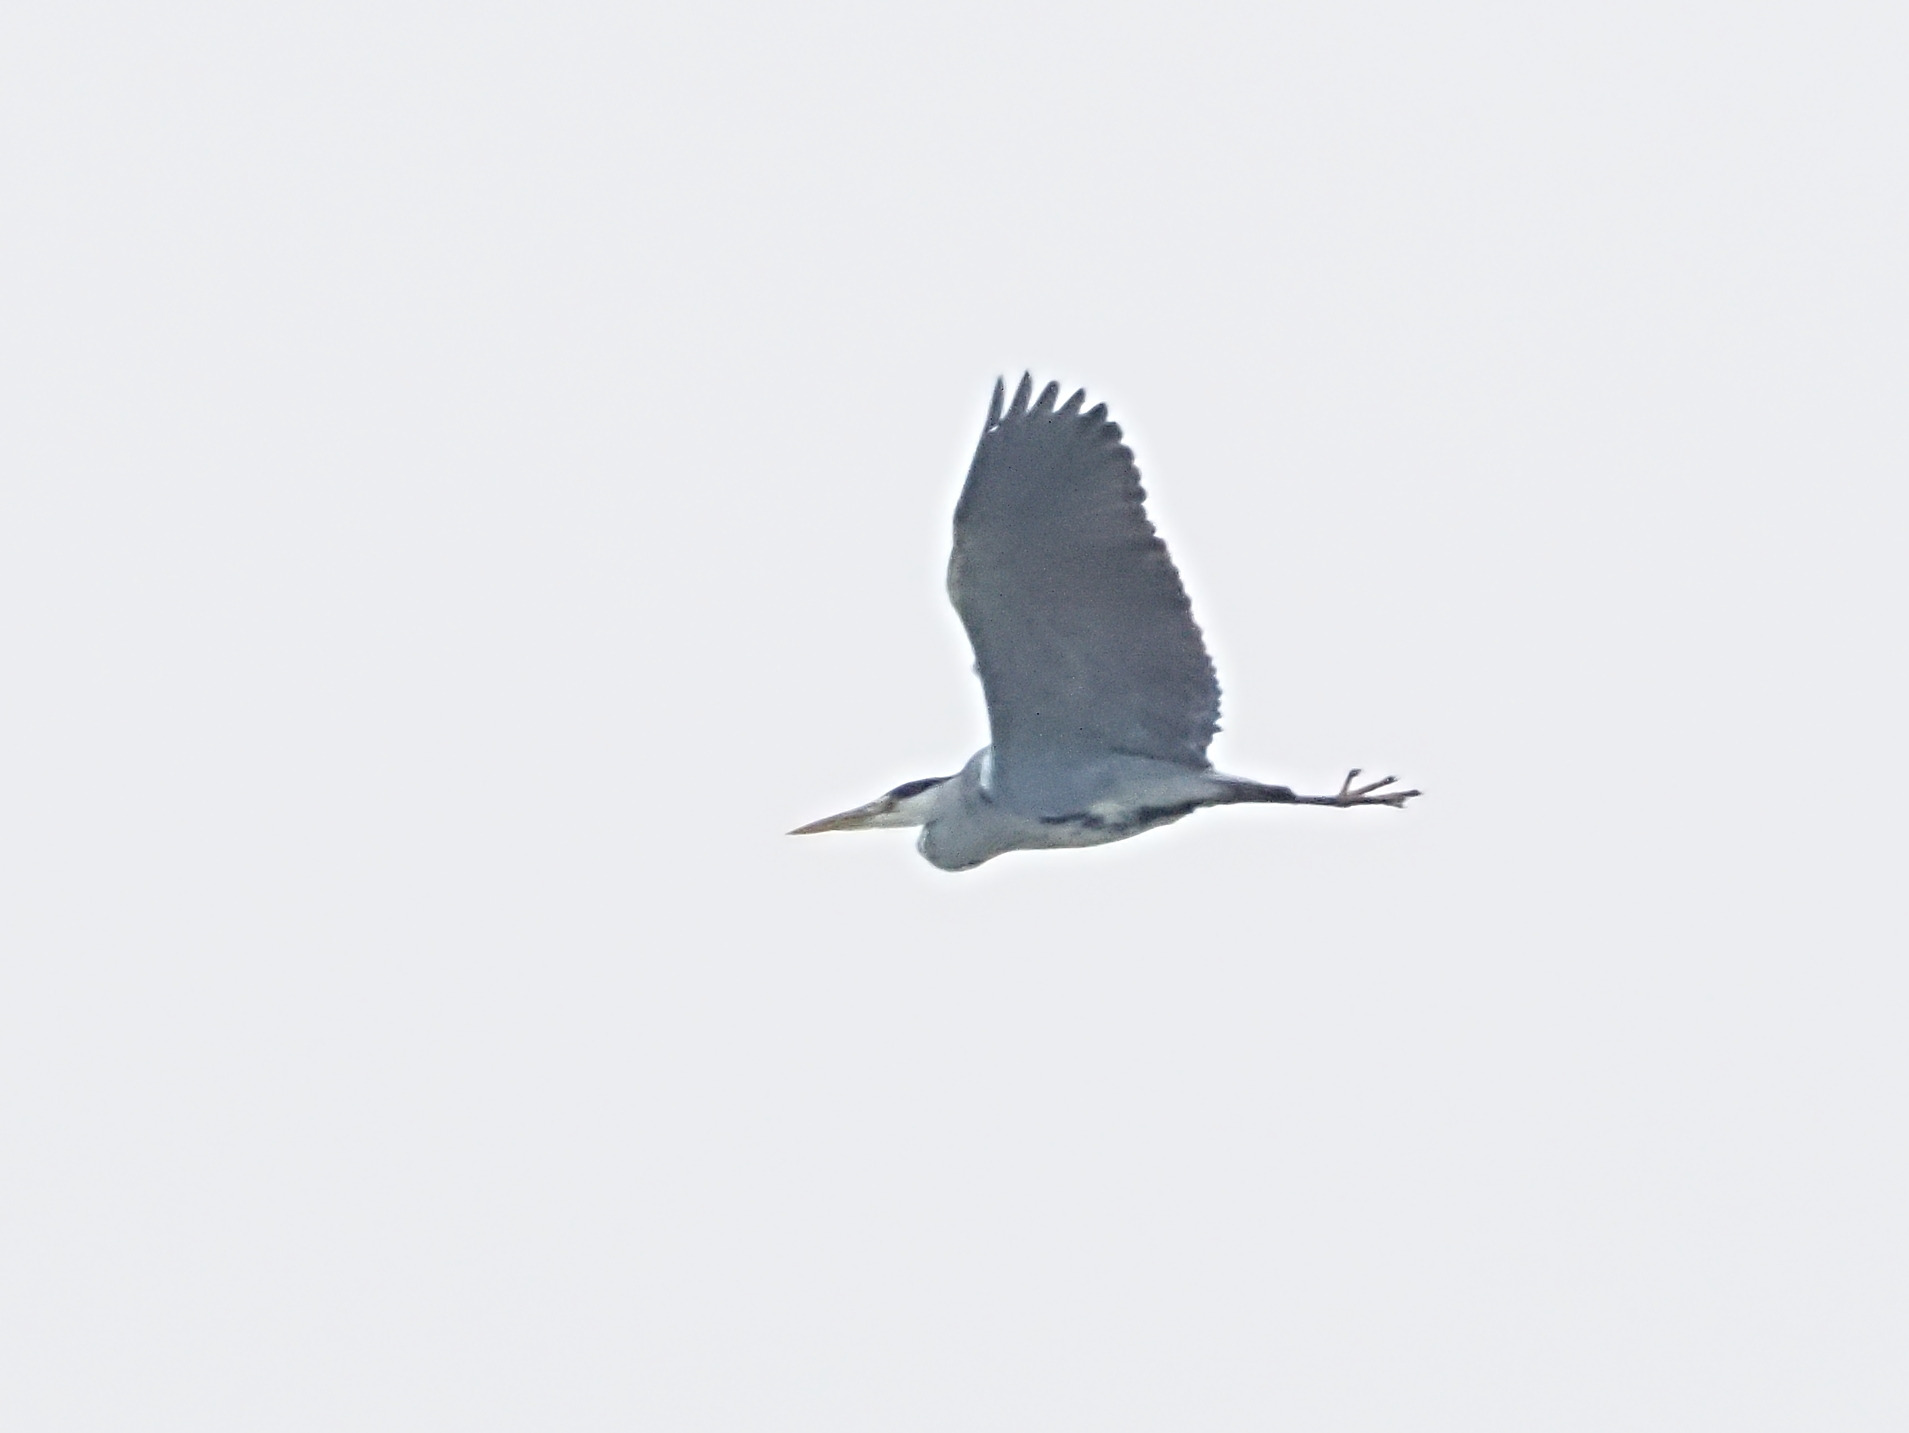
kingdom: Animalia
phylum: Chordata
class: Aves
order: Pelecaniformes
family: Ardeidae
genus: Ardea
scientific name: Ardea cinerea
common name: Fiskehejre
